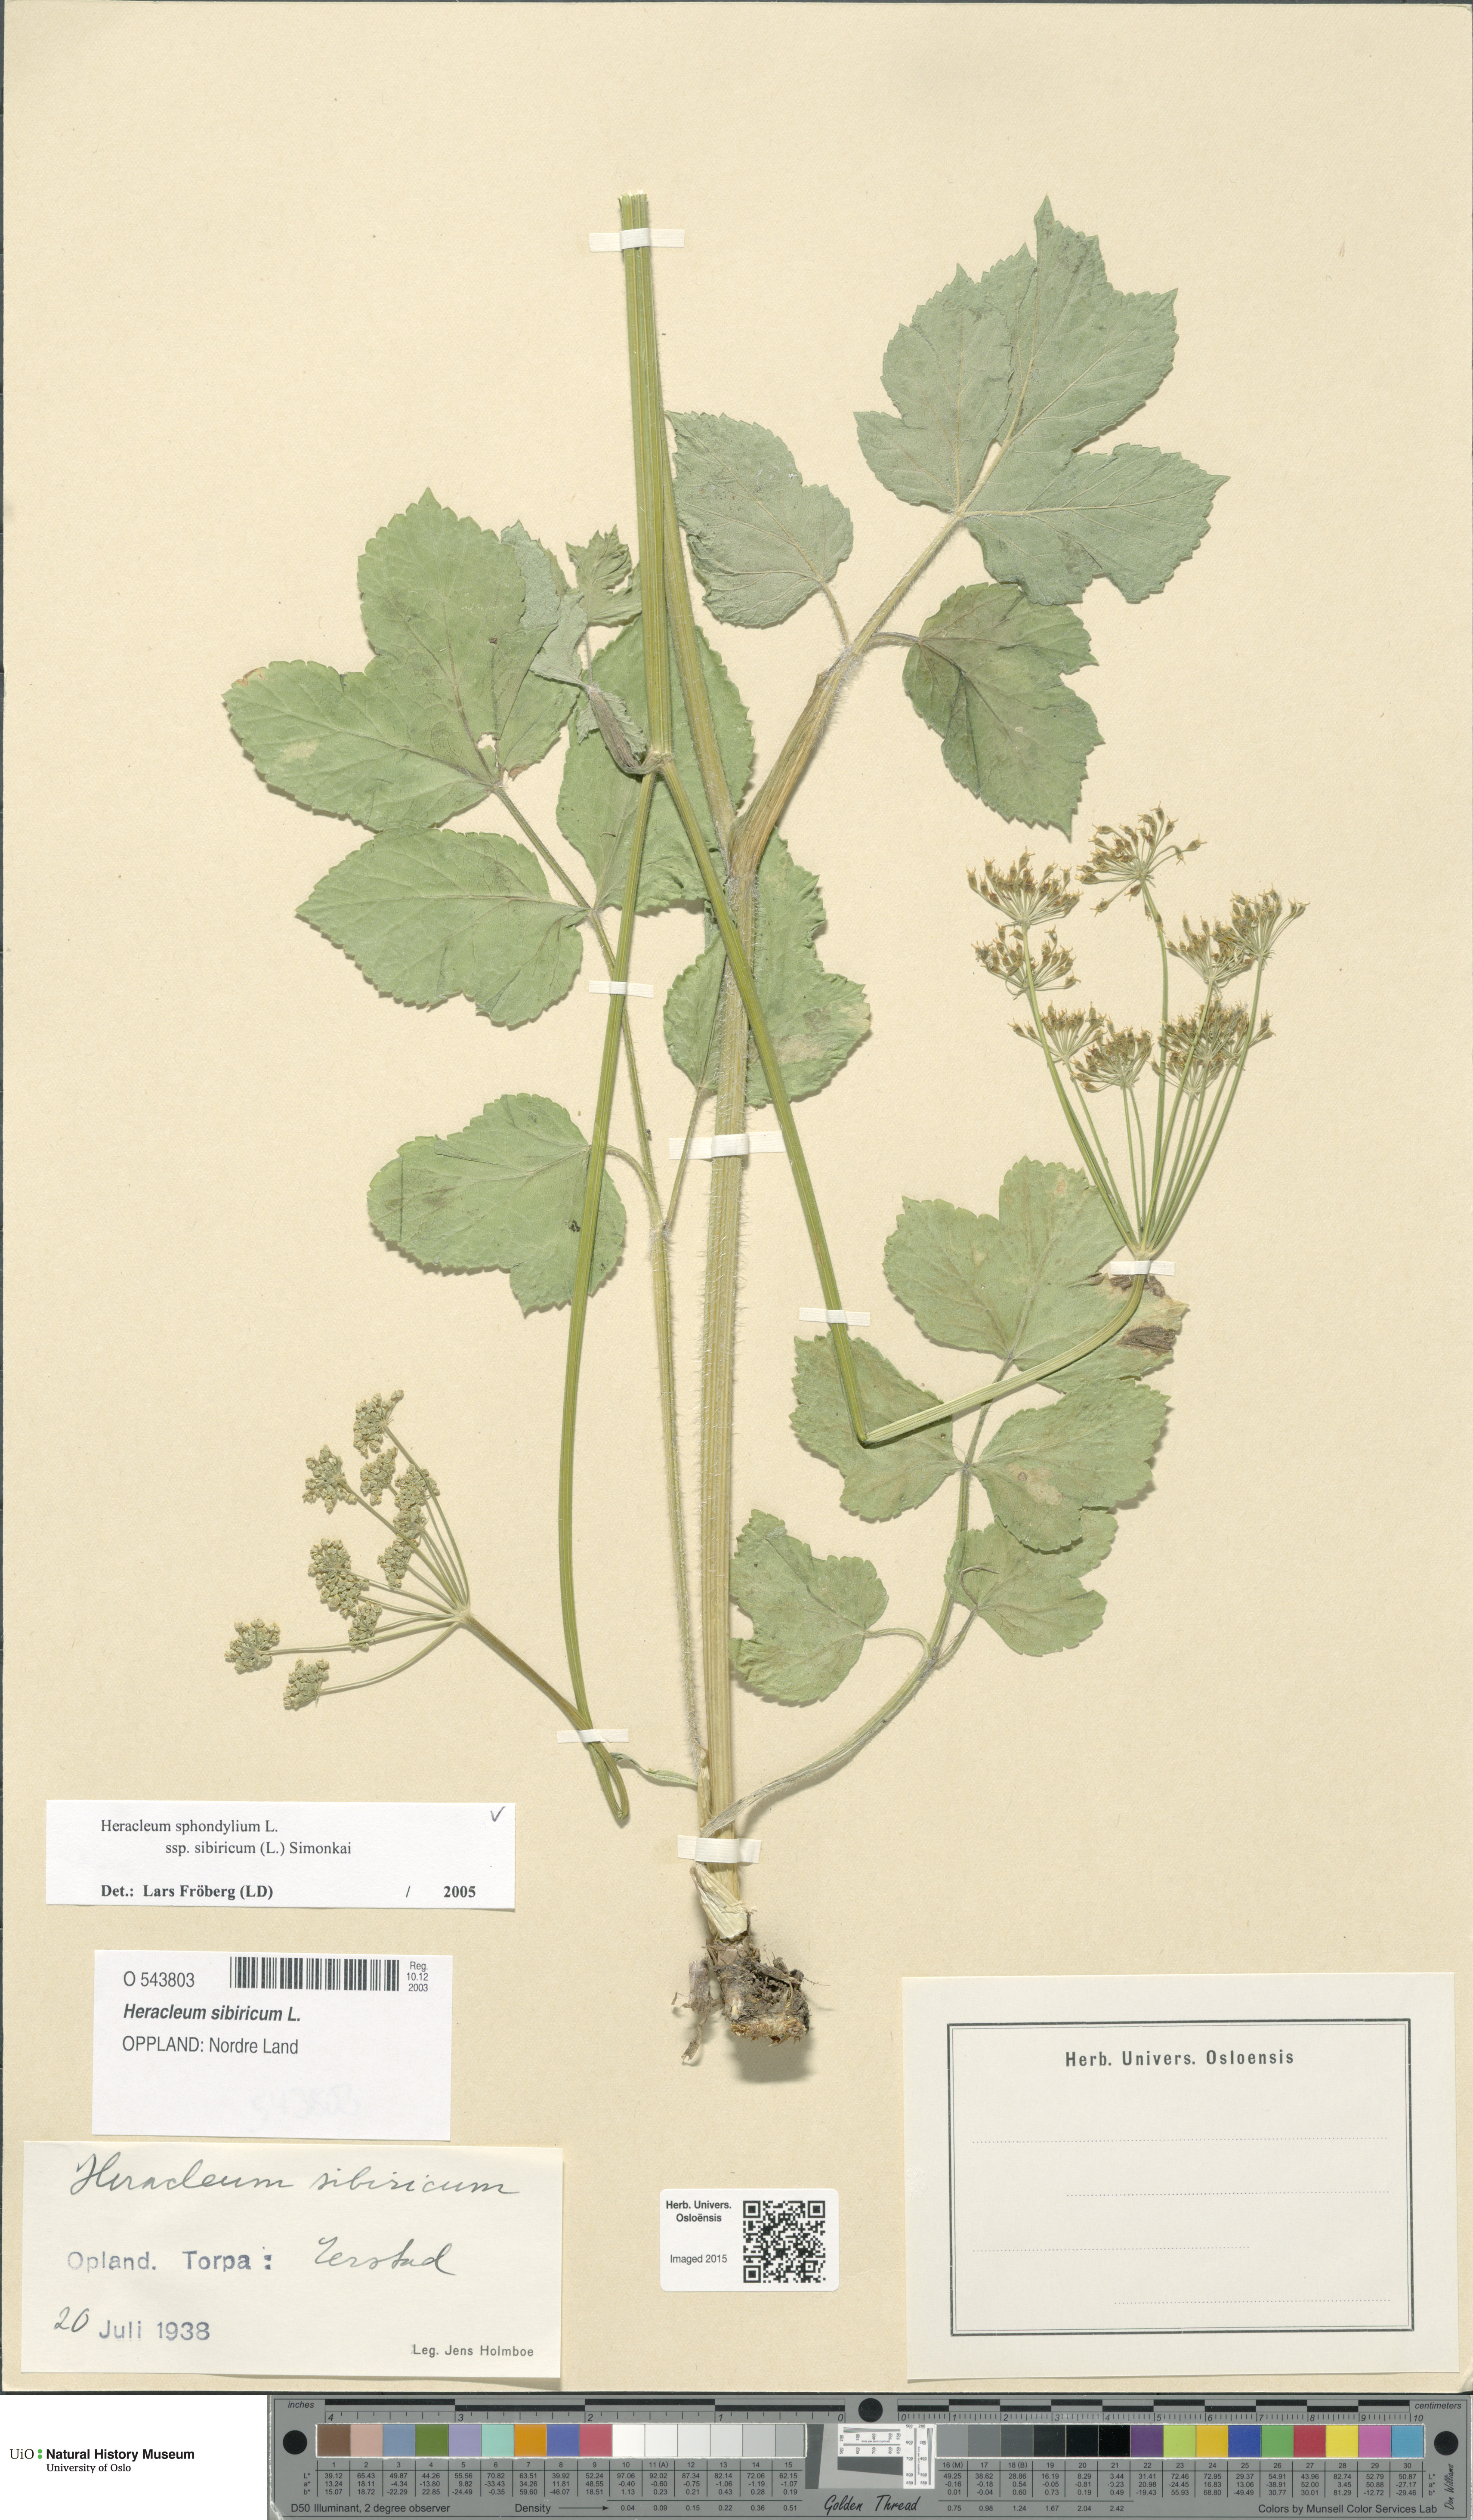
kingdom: Plantae
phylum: Tracheophyta
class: Magnoliopsida
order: Apiales
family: Apiaceae
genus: Heracleum
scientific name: Heracleum sphondylium
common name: Hogweed
